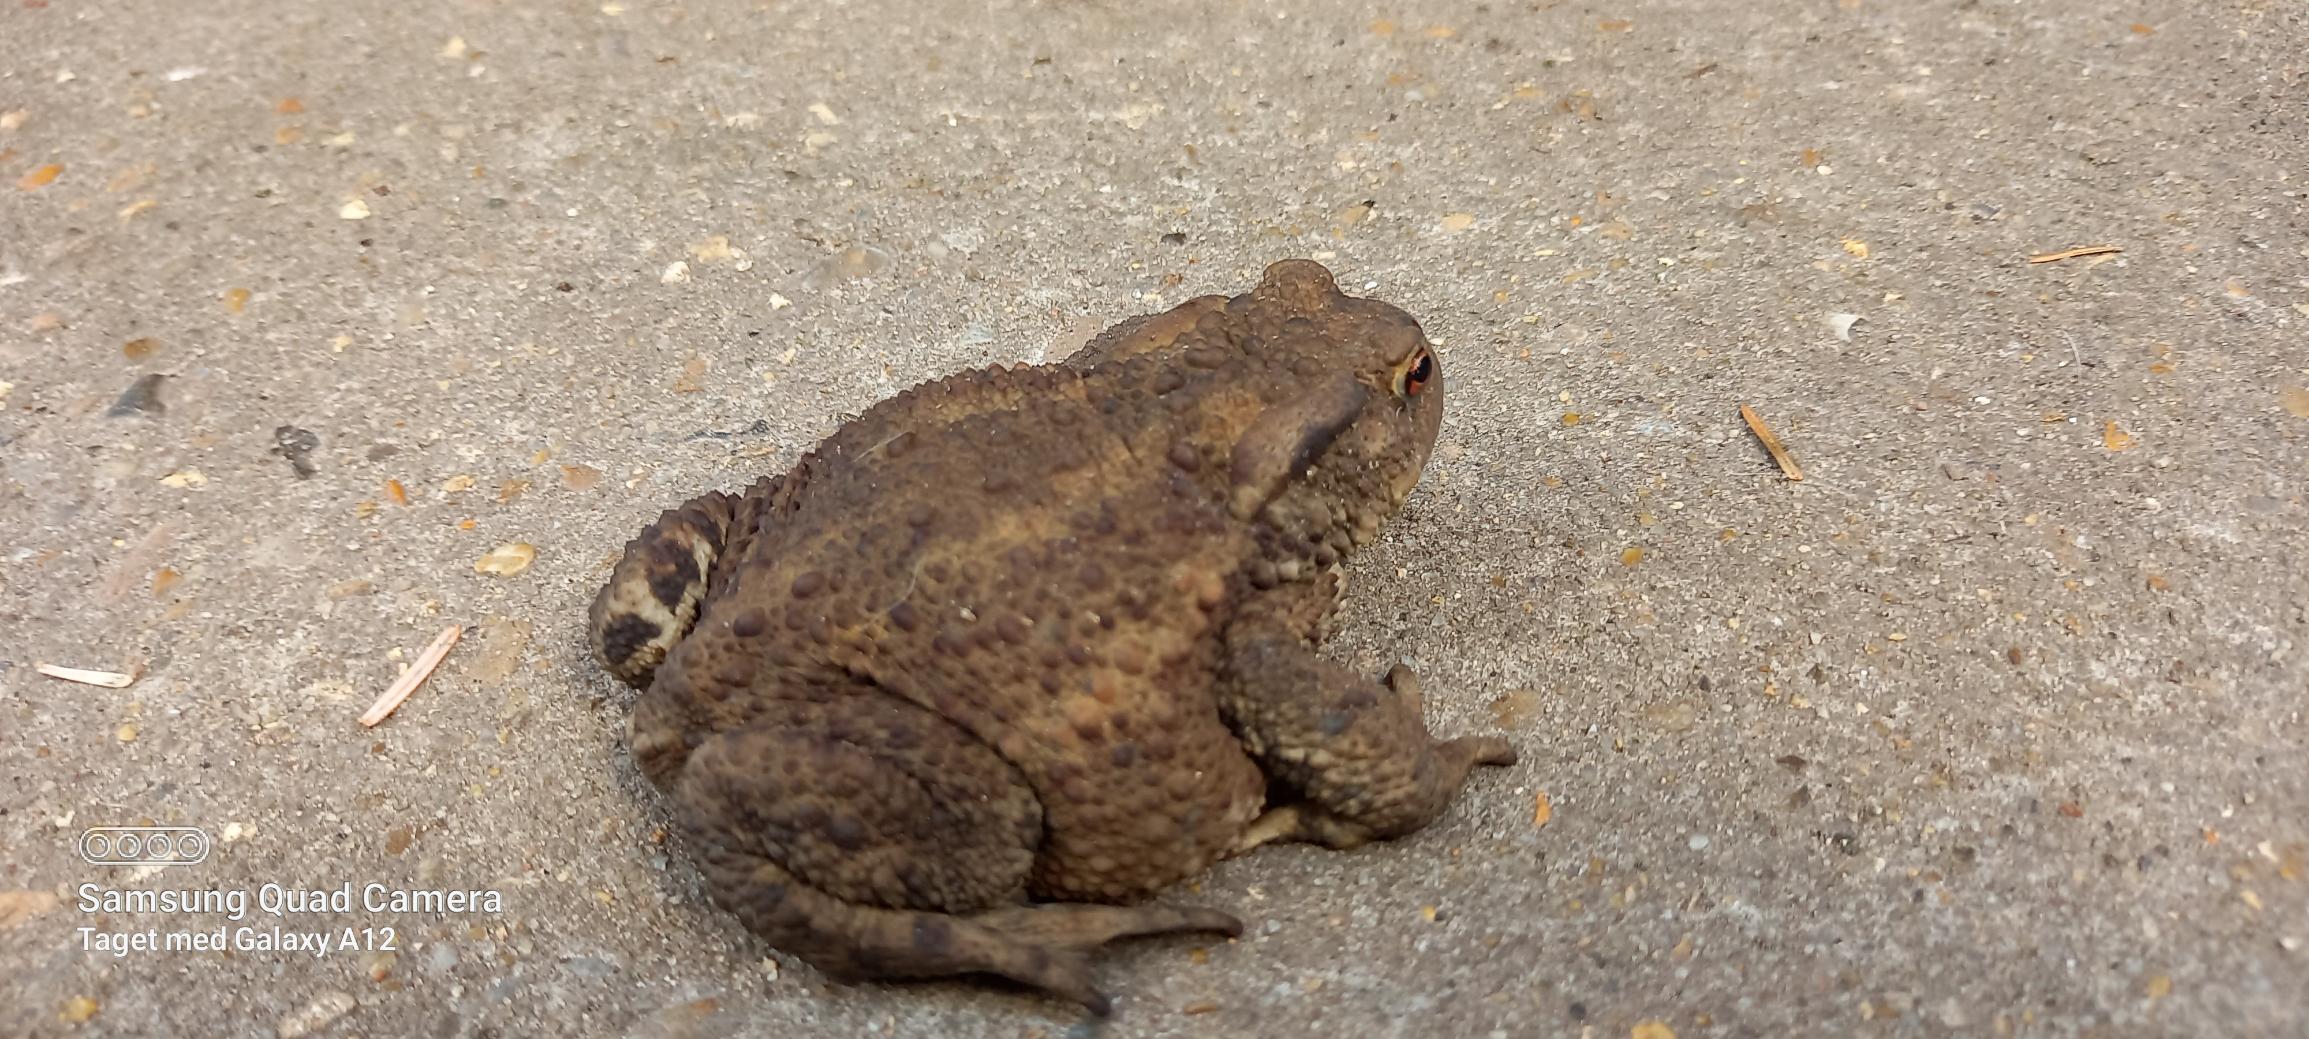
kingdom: Animalia
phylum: Chordata
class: Amphibia
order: Anura
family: Bufonidae
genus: Bufo
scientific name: Bufo bufo
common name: Skrubtudse
